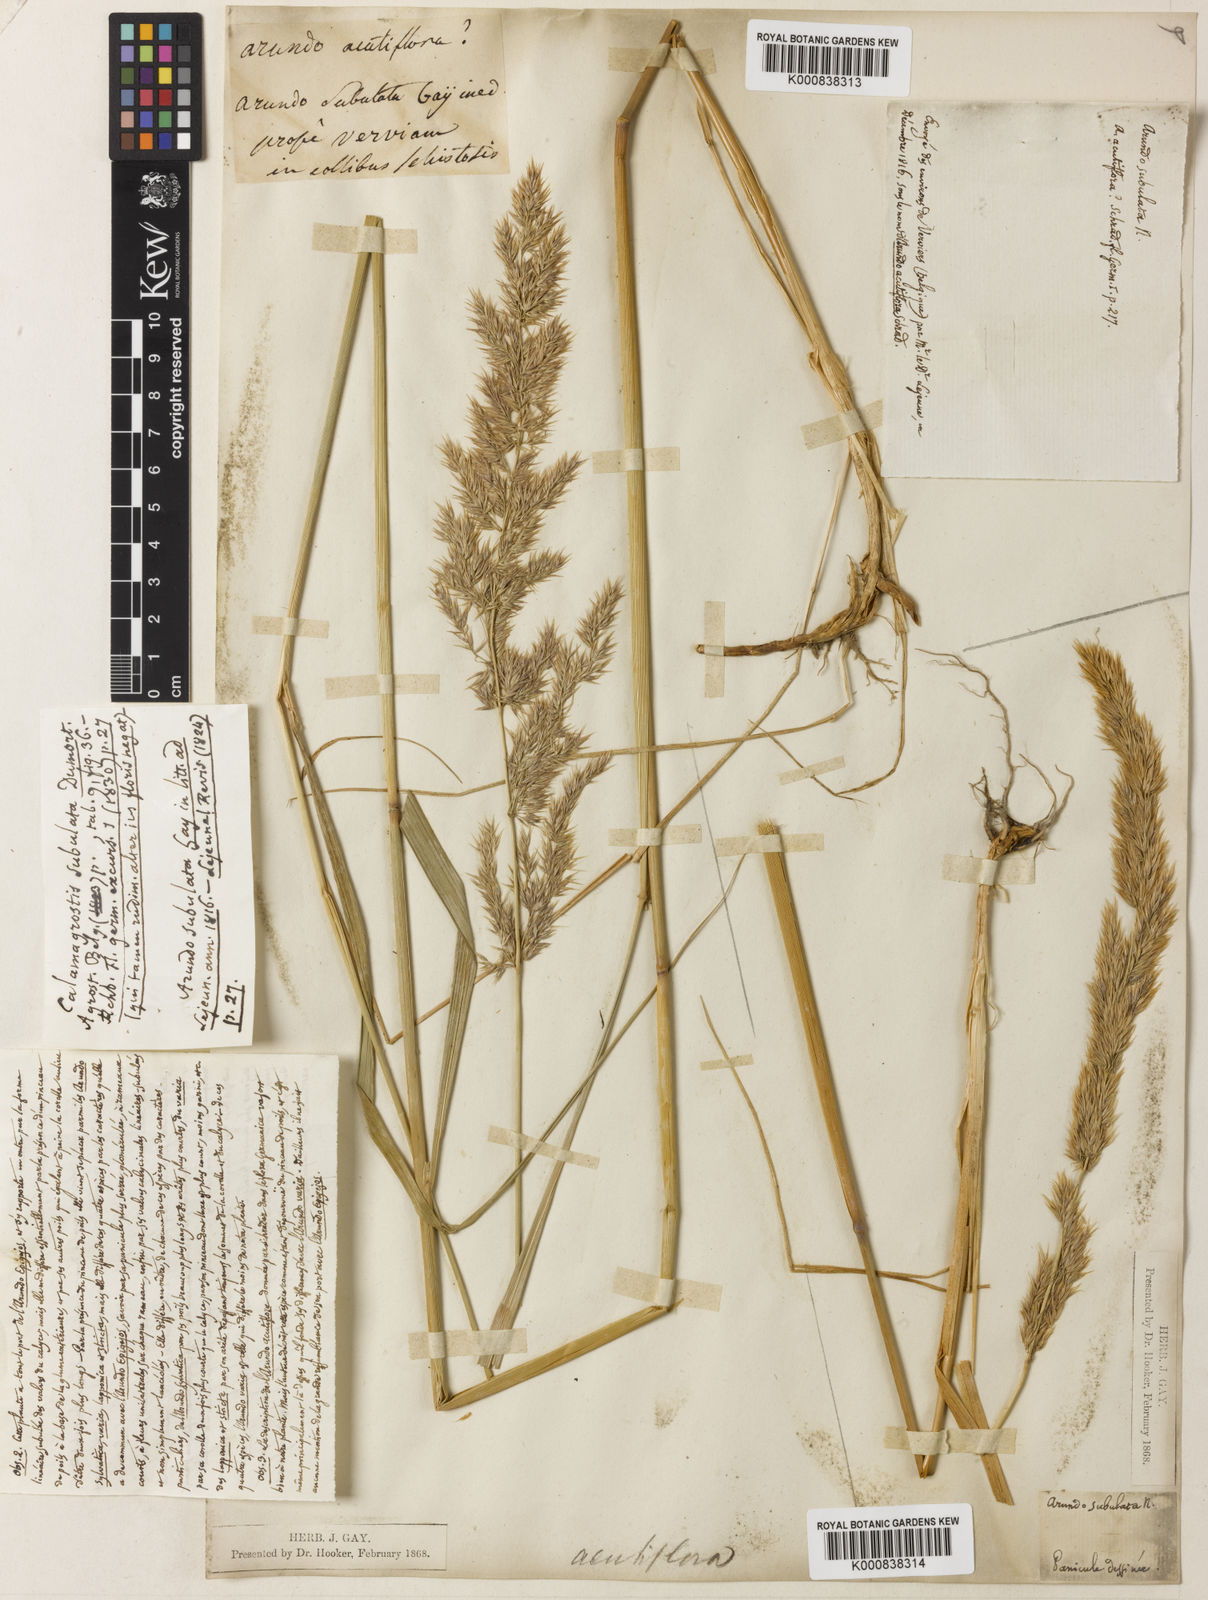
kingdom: Plantae
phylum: Tracheophyta
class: Liliopsida
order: Poales
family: Poaceae
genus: Calamagrostis
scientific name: Calamagrostis arundinacea
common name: Metskastik
